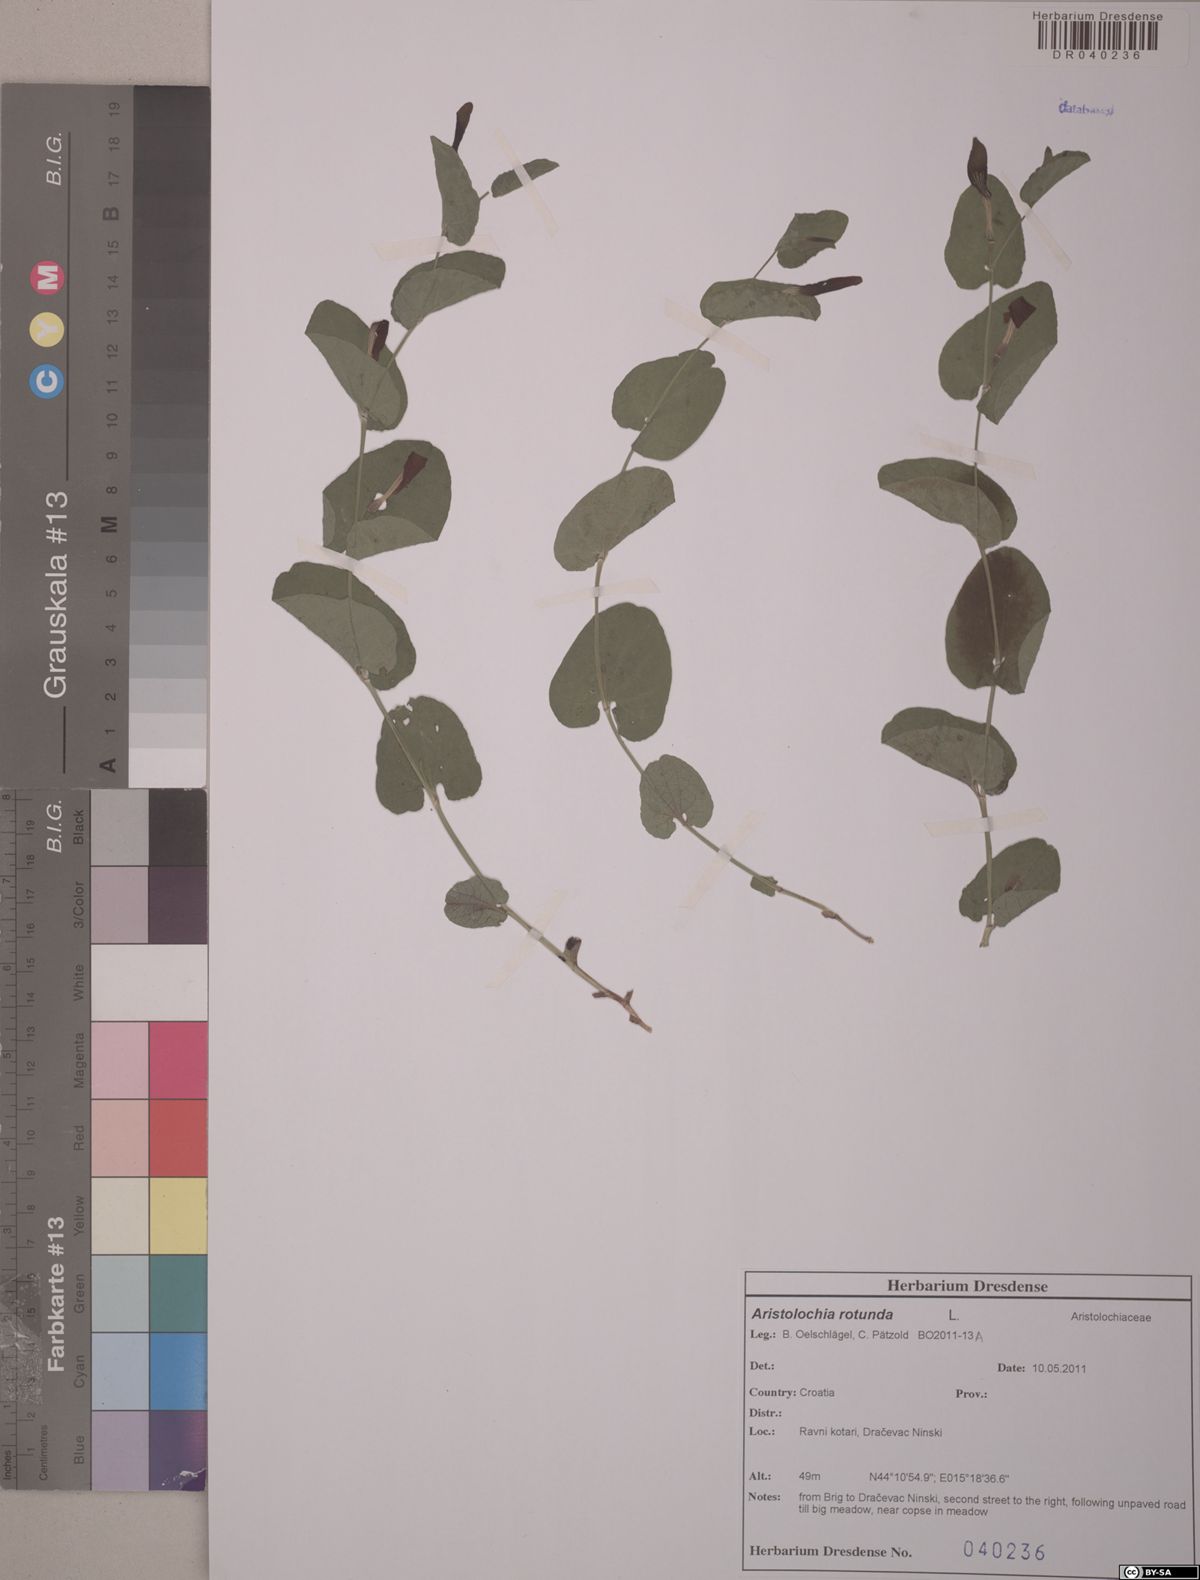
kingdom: Plantae
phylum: Tracheophyta
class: Magnoliopsida
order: Piperales
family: Aristolochiaceae
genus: Aristolochia
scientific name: Aristolochia rotunda
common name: Smearwort
